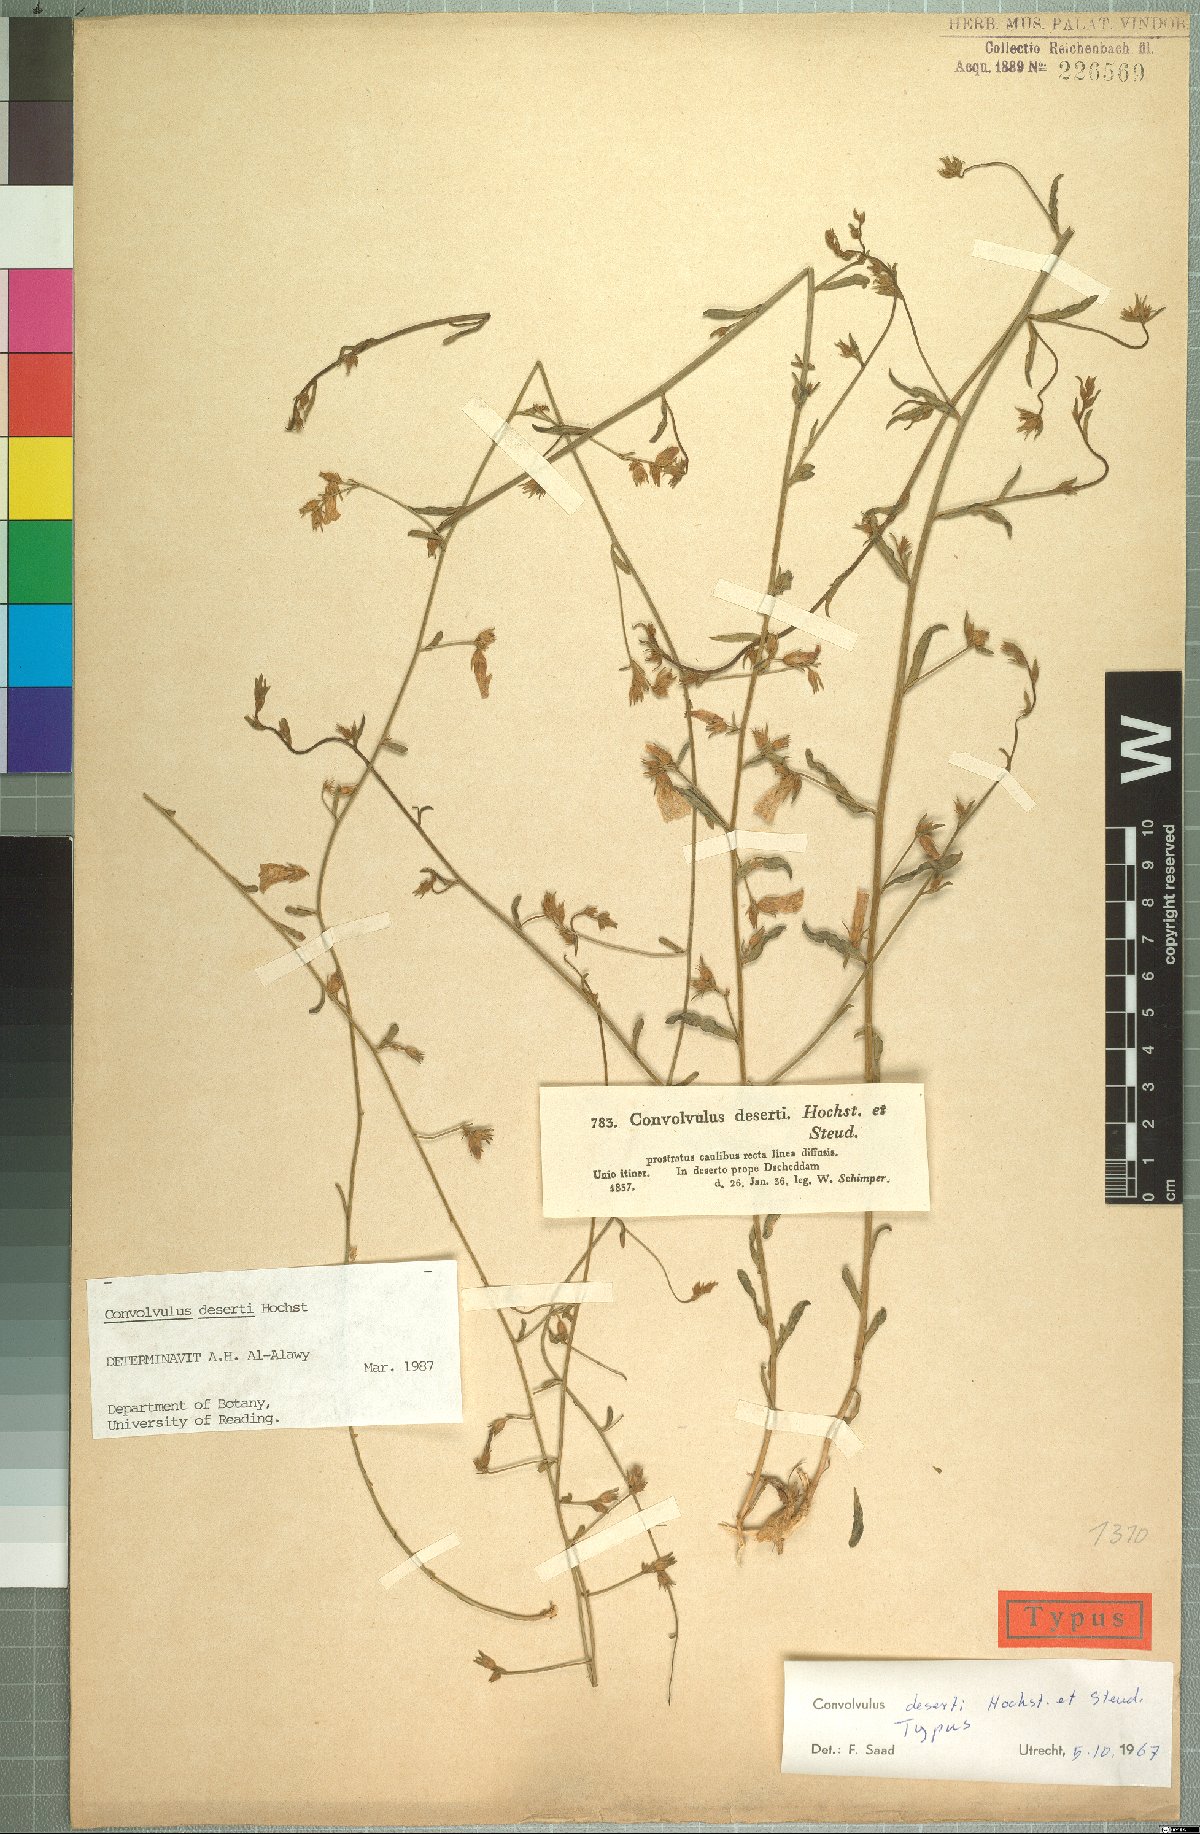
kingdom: Plantae
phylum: Tracheophyta
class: Magnoliopsida
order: Solanales
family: Convolvulaceae
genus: Convolvulus
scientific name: Convolvulus prostratus
